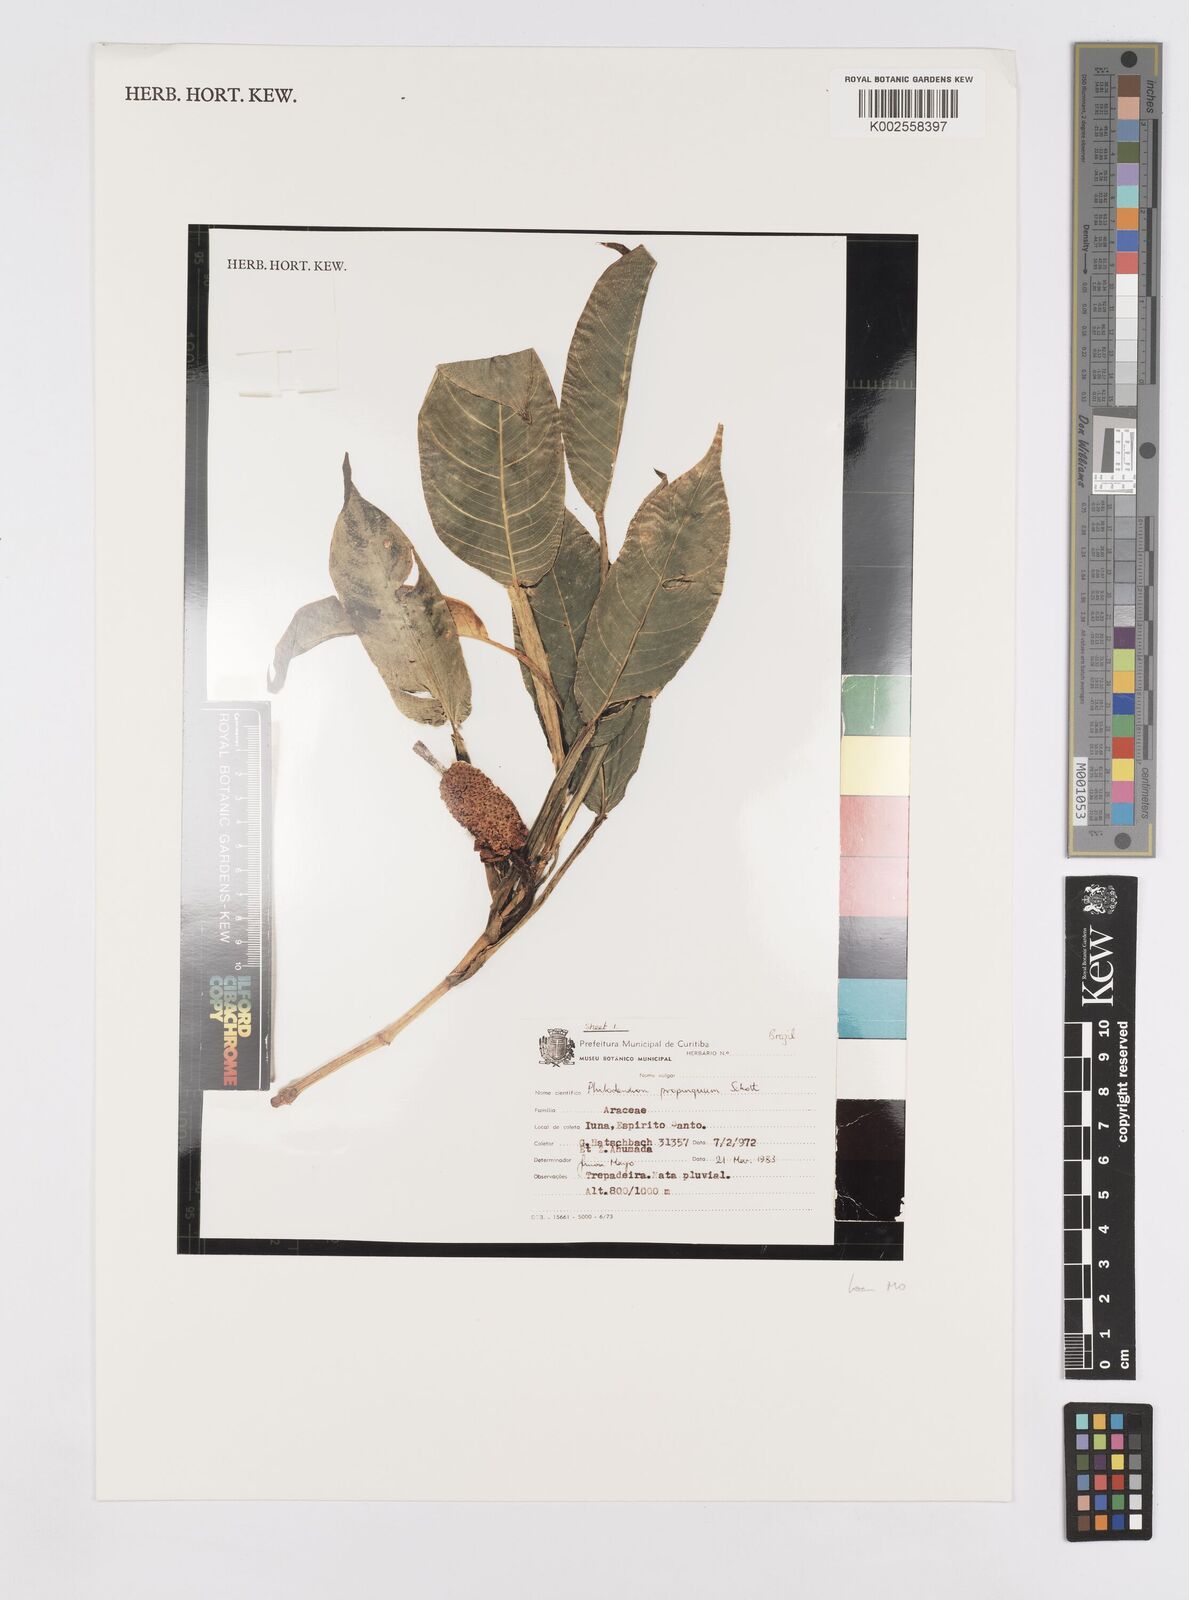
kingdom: Plantae
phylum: Tracheophyta
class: Liliopsida
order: Alismatales
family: Araceae
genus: Philodendron
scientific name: Philodendron propinquum
